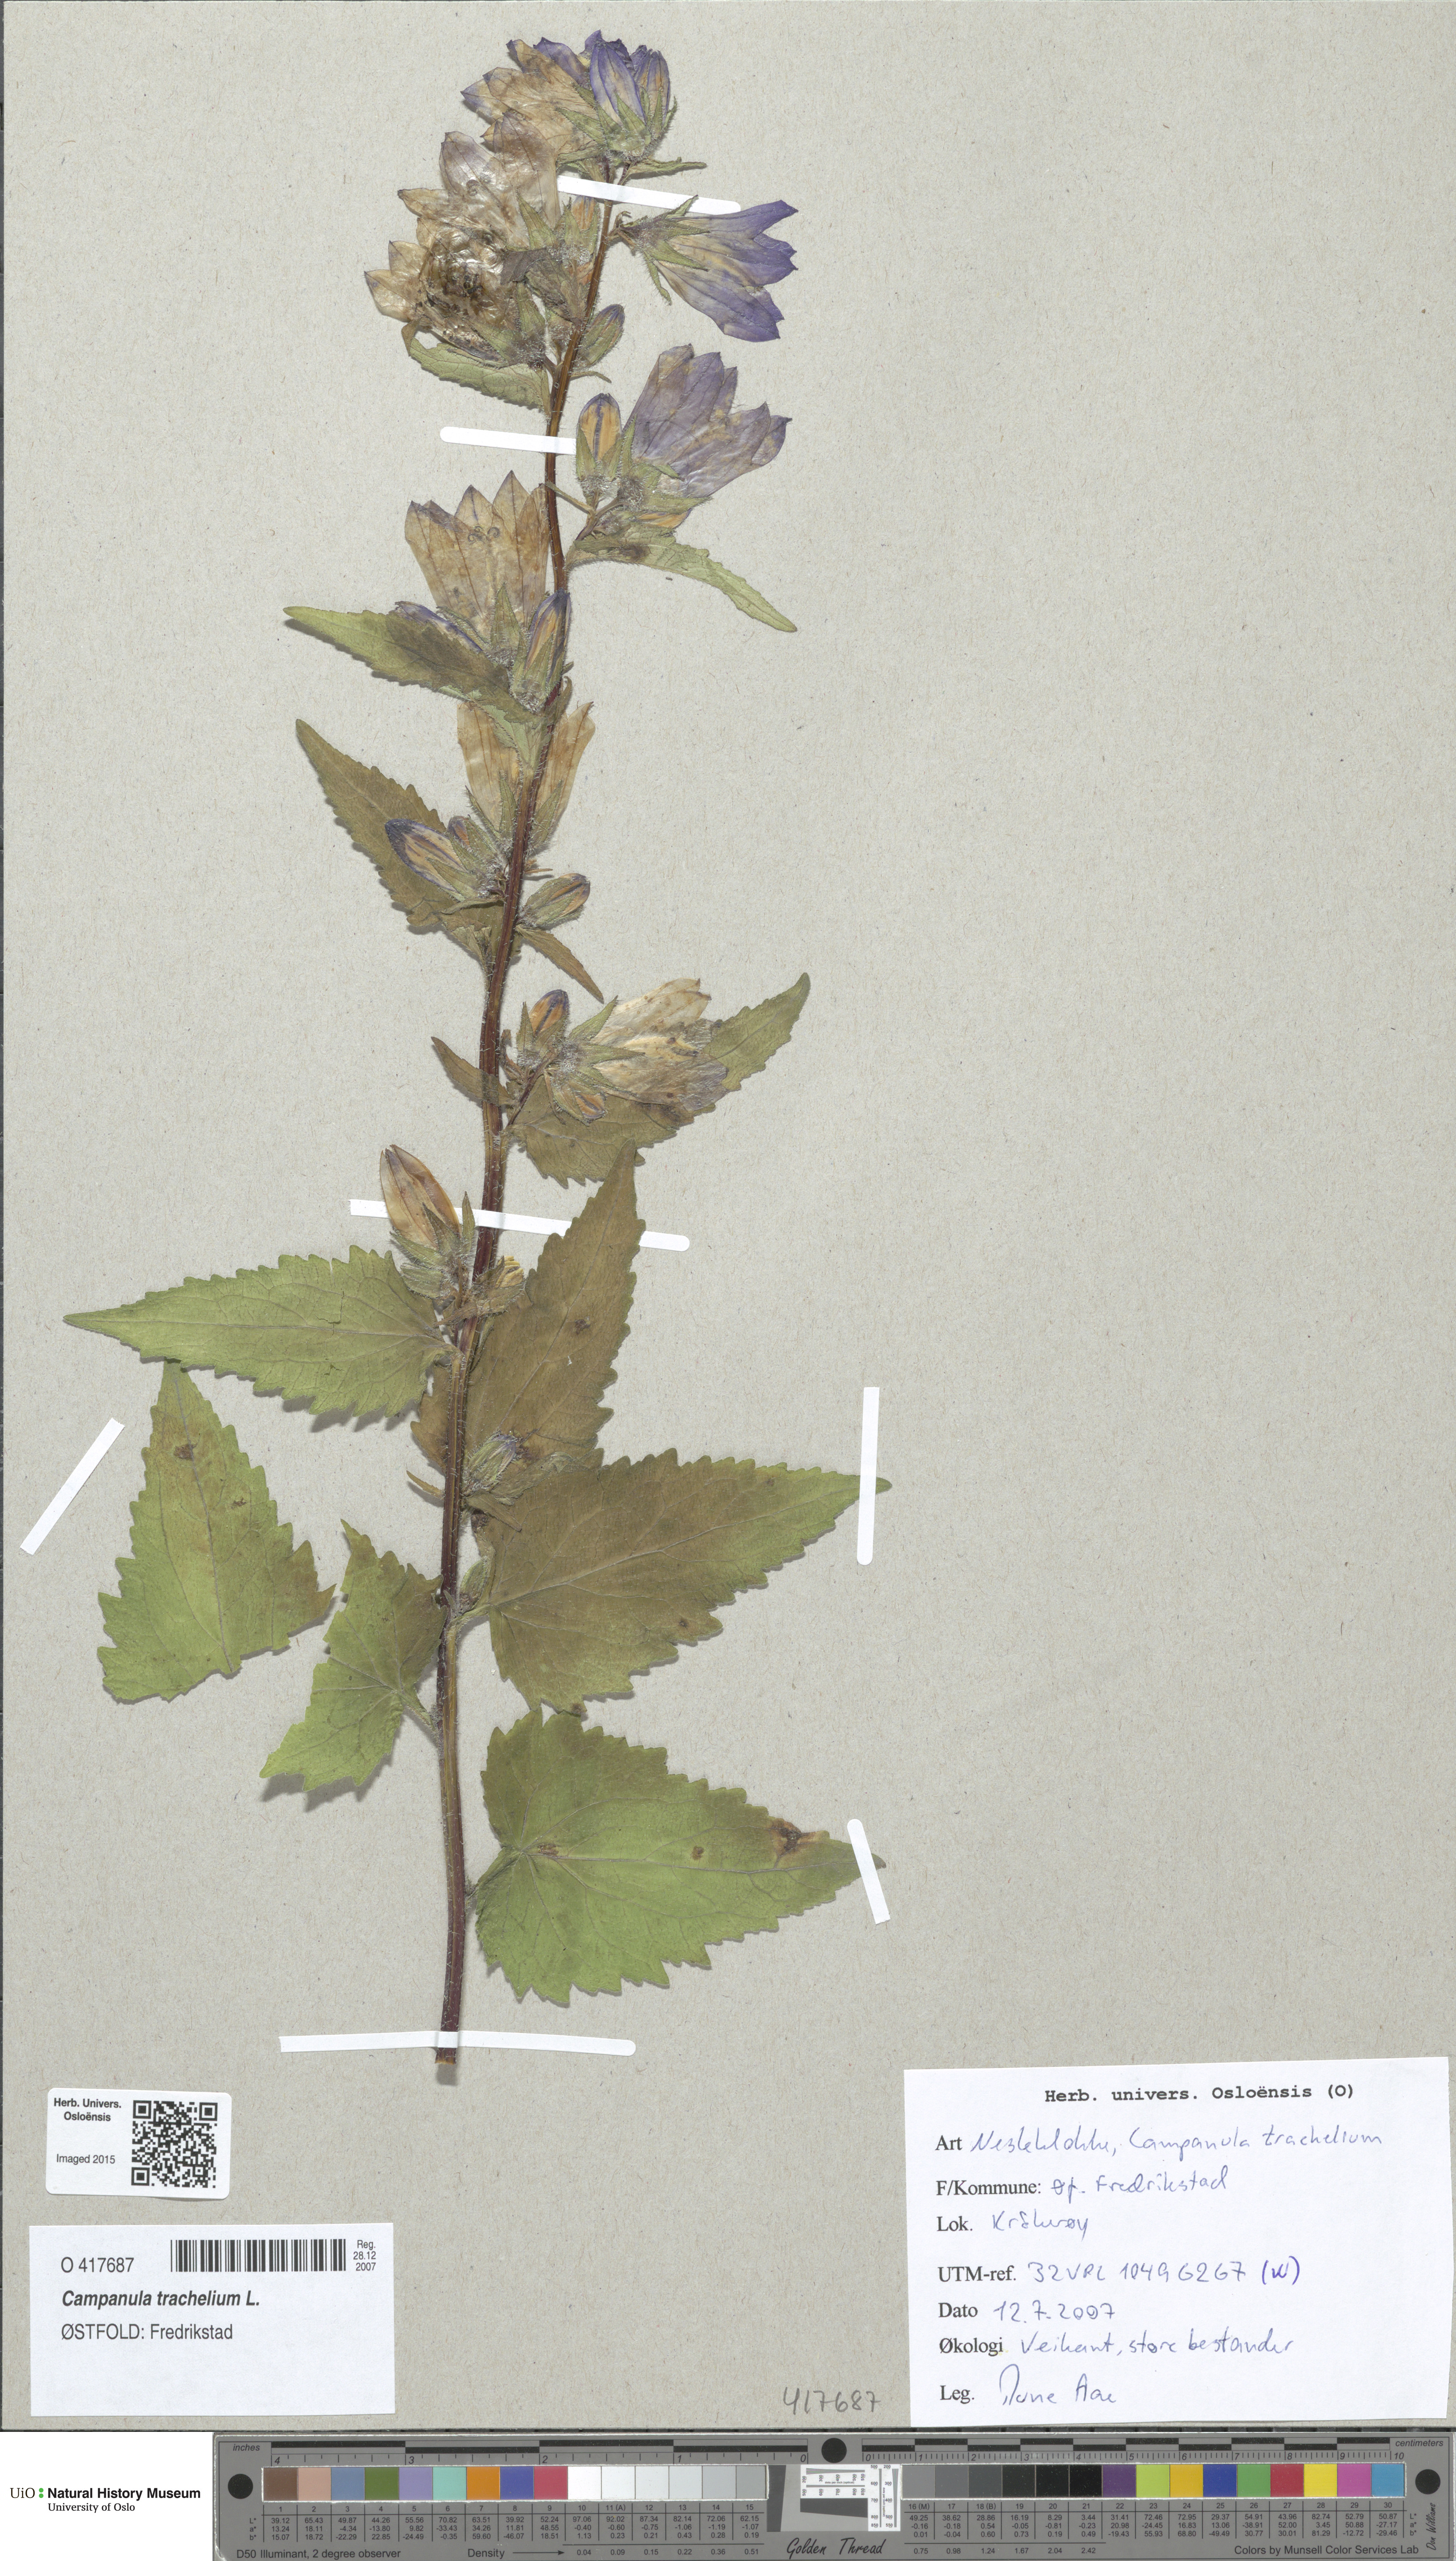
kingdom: Plantae
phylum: Tracheophyta
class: Magnoliopsida
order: Asterales
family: Campanulaceae
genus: Campanula
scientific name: Campanula trachelium
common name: Nettle-leaved bellflower
